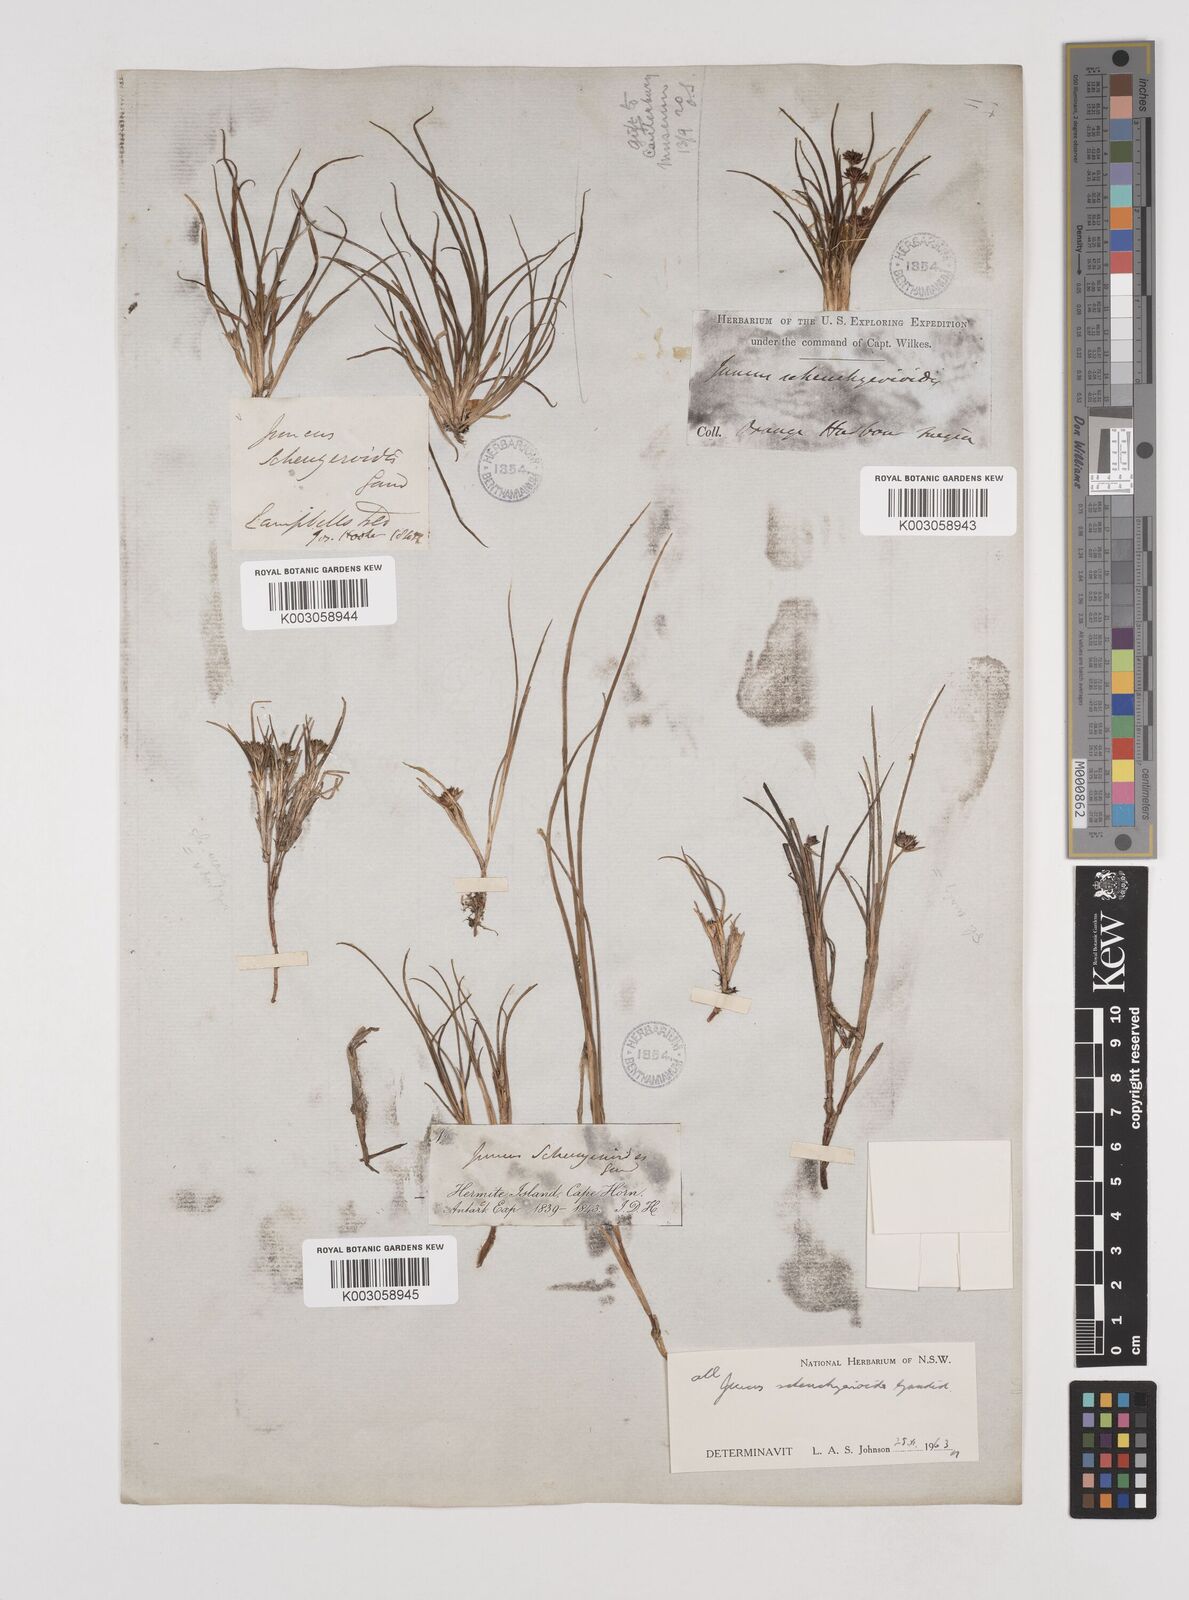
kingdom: Plantae
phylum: Tracheophyta
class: Liliopsida
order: Poales
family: Juncaceae
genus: Juncus
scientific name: Juncus scheuchzerioides
